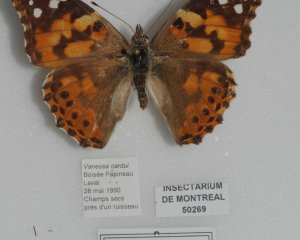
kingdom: Animalia
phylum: Arthropoda
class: Insecta
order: Lepidoptera
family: Nymphalidae
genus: Vanessa
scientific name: Vanessa cardui
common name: Painted Lady
